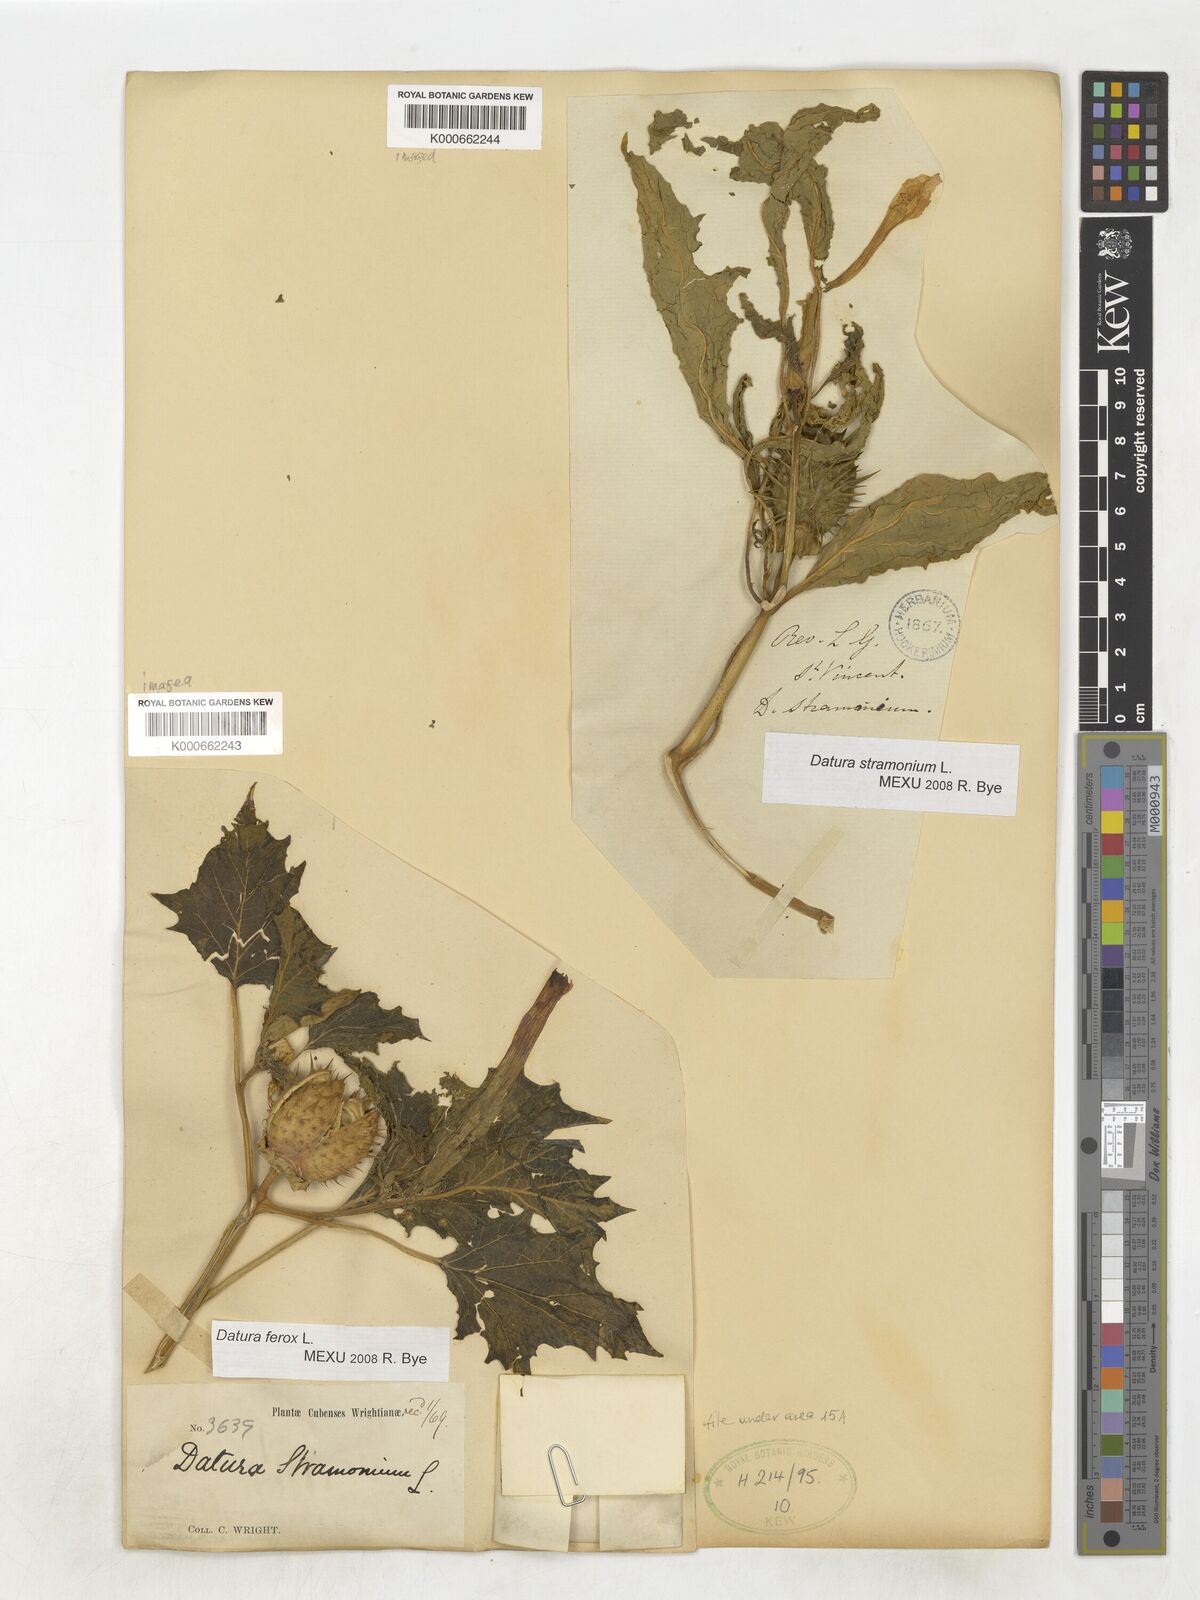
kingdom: Plantae
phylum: Tracheophyta
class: Magnoliopsida
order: Solanales
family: Solanaceae
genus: Datura
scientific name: Datura stramonium
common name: Thorn-apple
